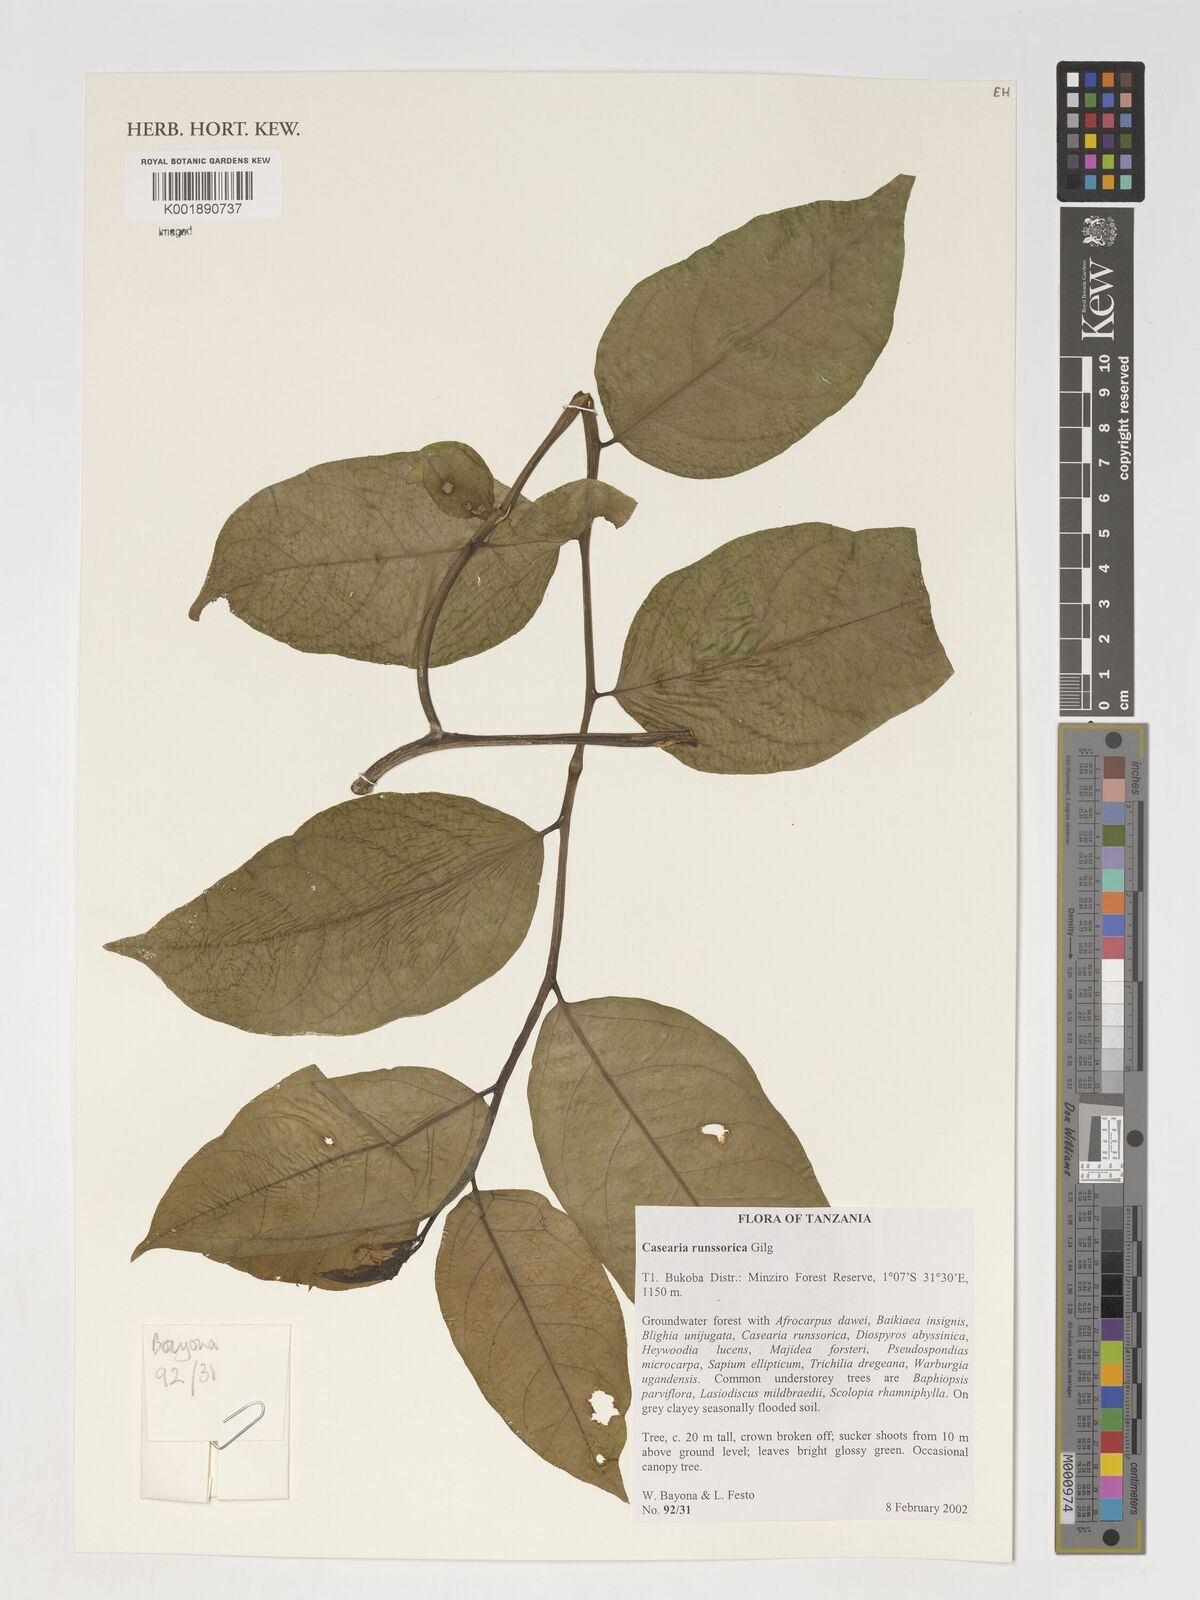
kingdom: Plantae
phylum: Tracheophyta
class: Magnoliopsida
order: Malpighiales
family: Salicaceae
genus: Casearia
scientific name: Casearia runssorica
